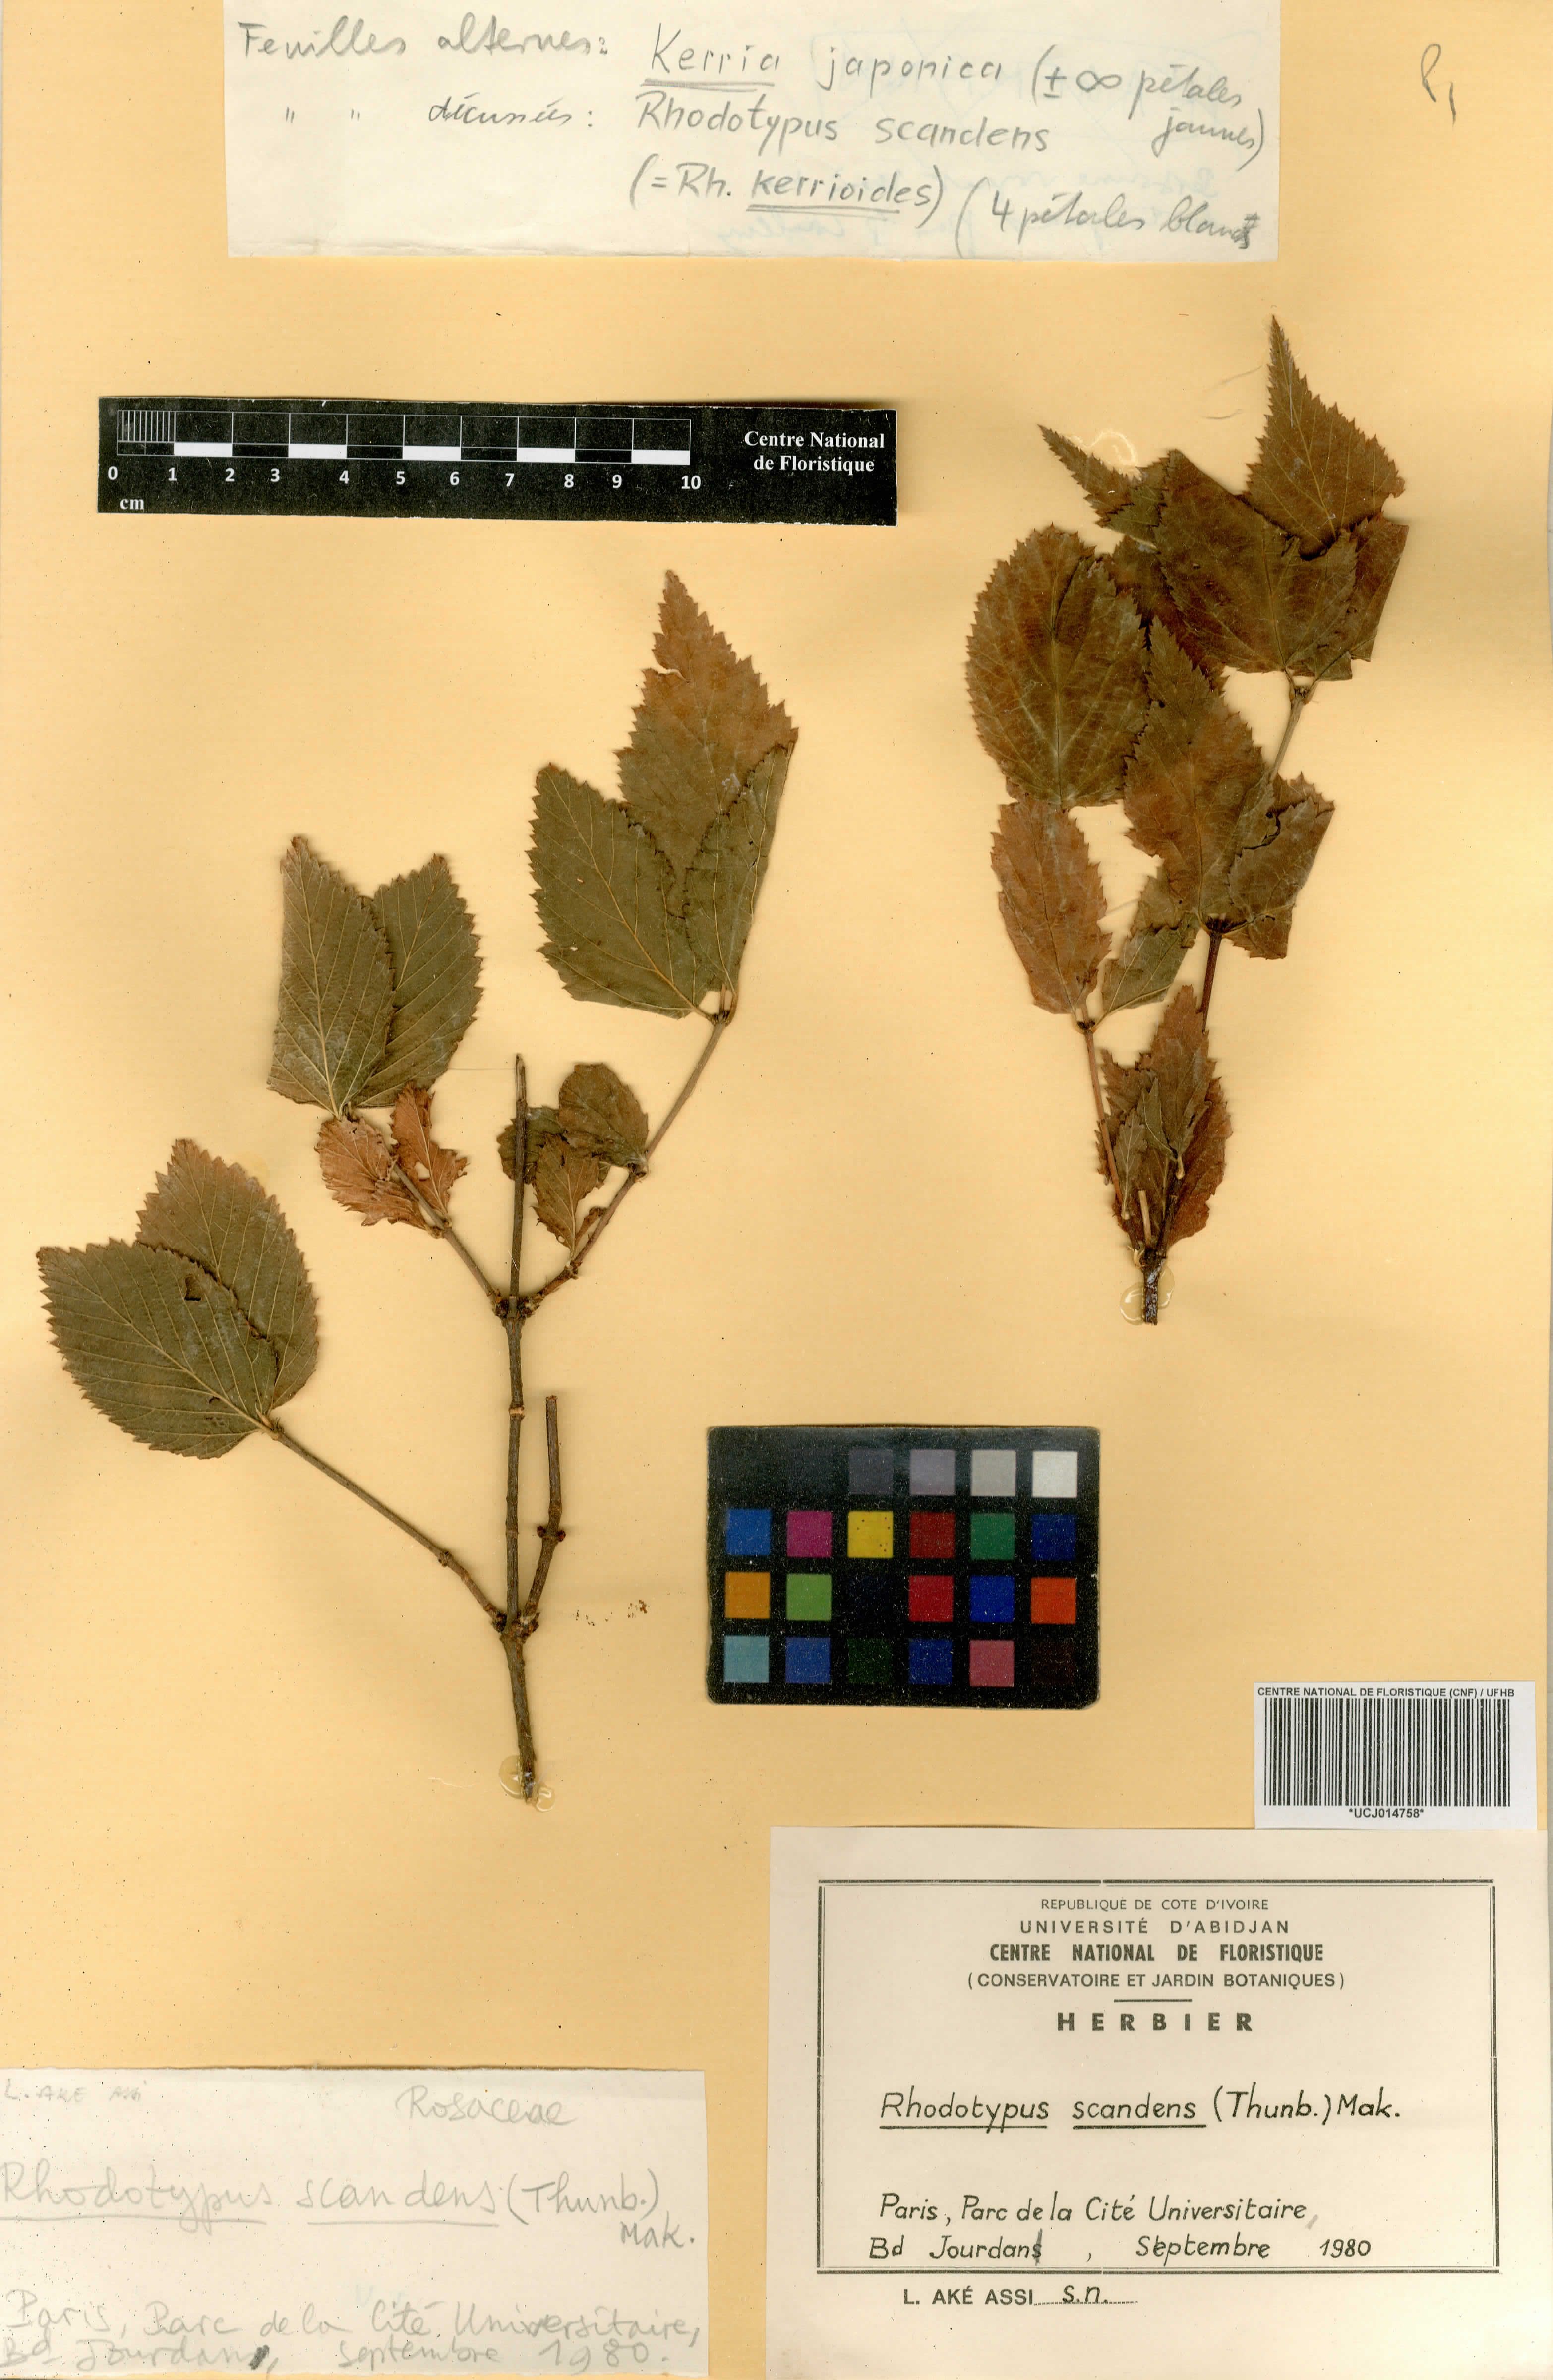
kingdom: Plantae
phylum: Tracheophyta
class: Magnoliopsida
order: Rosales
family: Rosaceae
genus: Rhodotypos
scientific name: Rhodotypos scandens
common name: Jetbead
